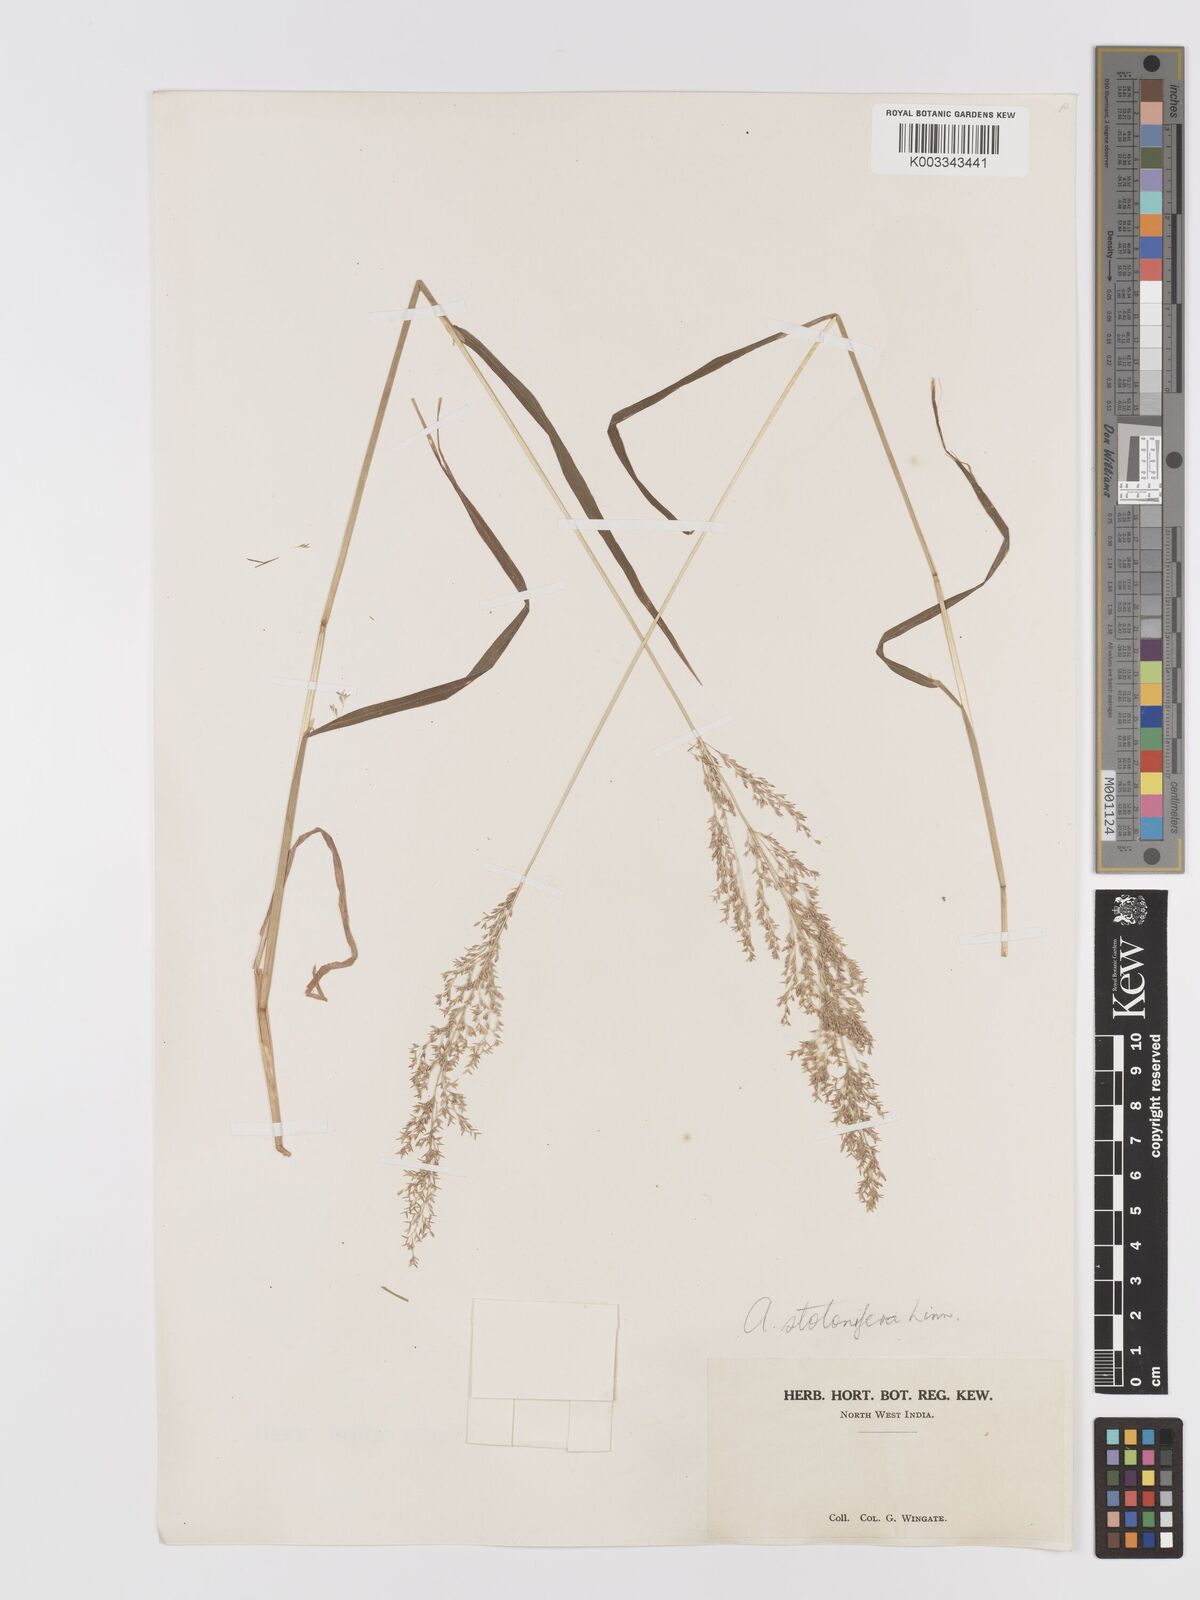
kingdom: Plantae
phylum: Tracheophyta
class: Liliopsida
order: Poales
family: Poaceae
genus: Agrostis
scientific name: Agrostis stolonifera
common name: Creeping bentgrass
